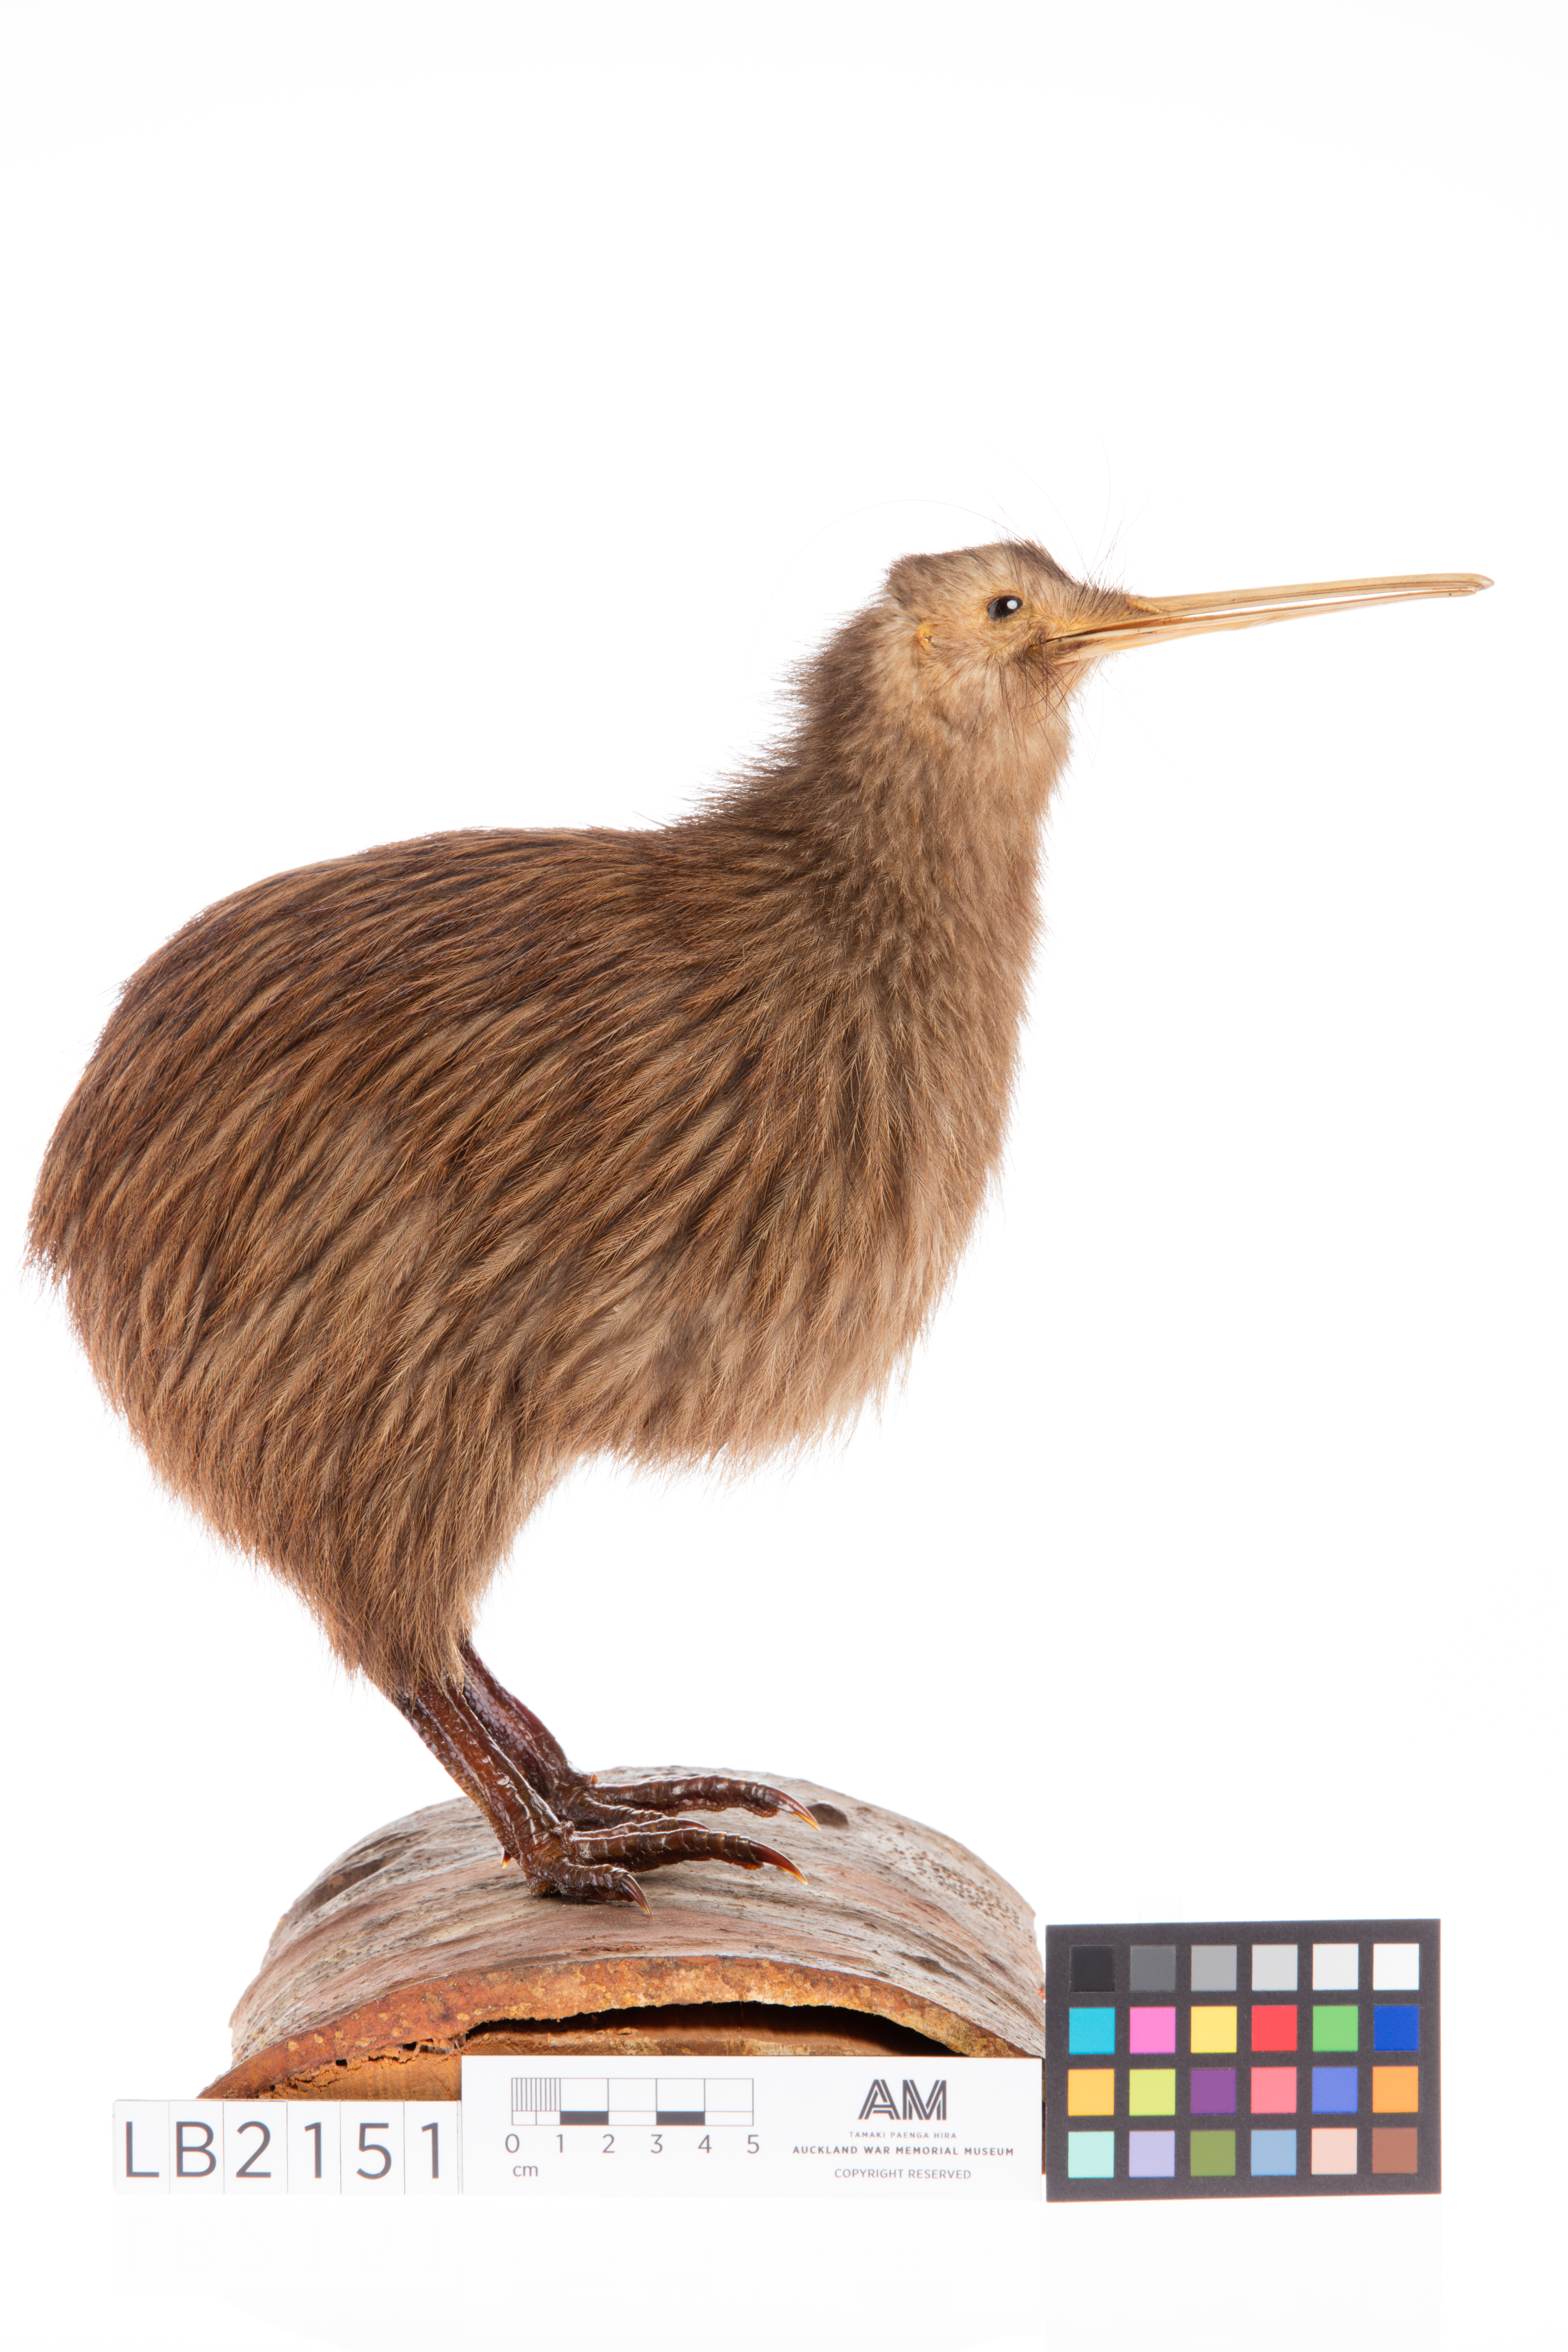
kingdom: Animalia
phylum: Chordata
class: Aves
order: Apterygiformes
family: Apterygidae
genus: Apteryx
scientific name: Apteryx mantelli
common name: North island brown kiwi
